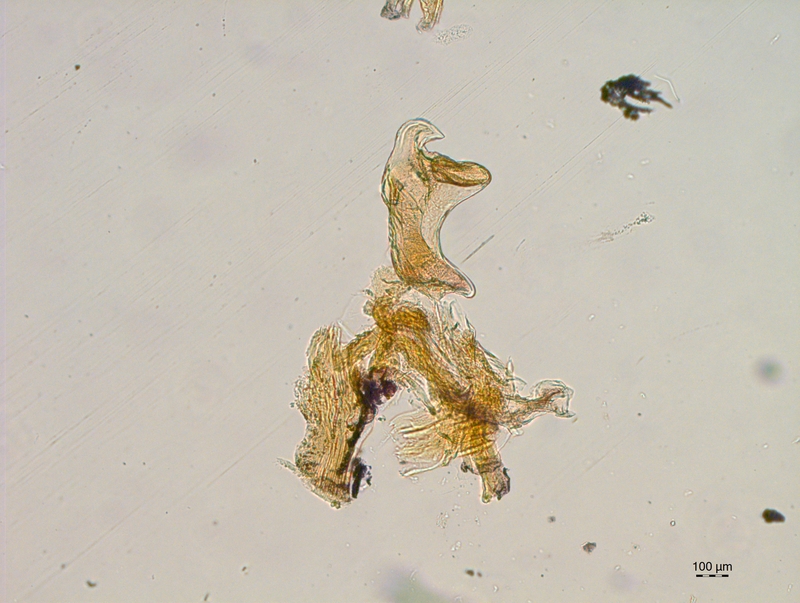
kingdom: Animalia
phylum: Arthropoda
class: Diplopoda
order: Chordeumatida
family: Craspedosomatidae
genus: Craspedosoma
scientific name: Craspedosoma alemannicum
